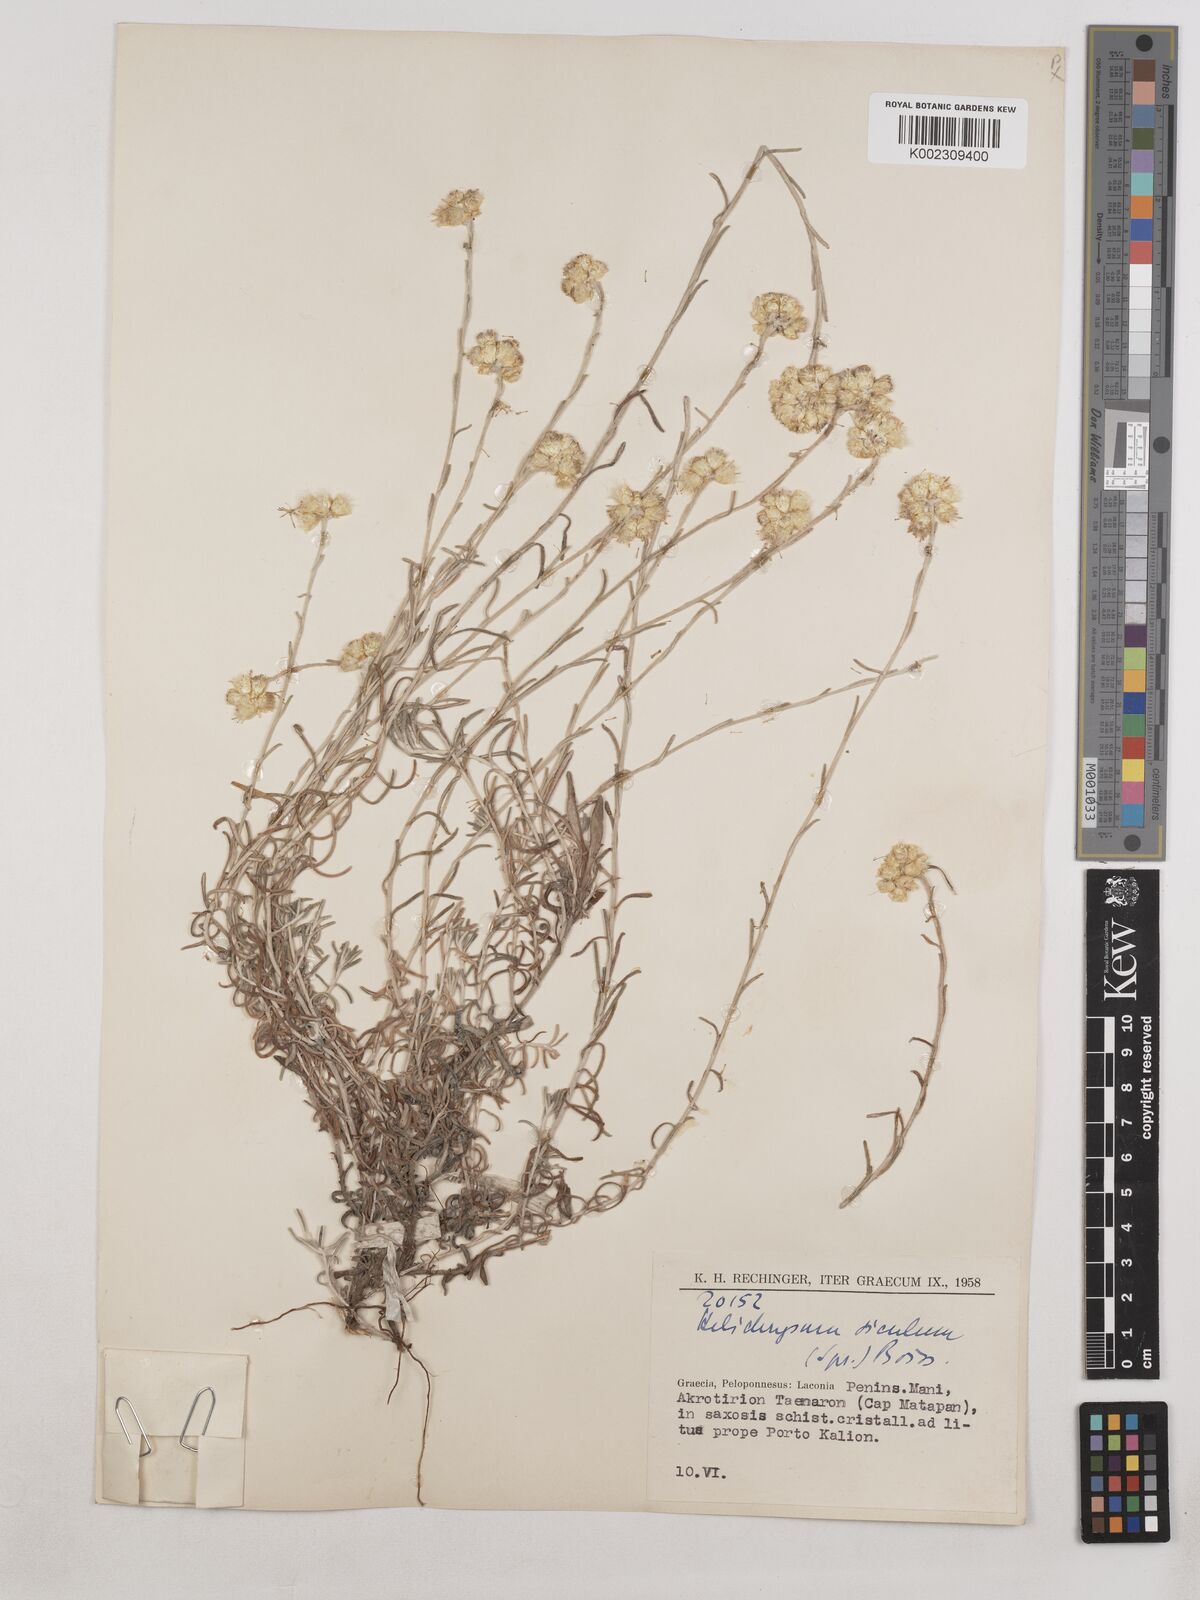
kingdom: Plantae
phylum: Tracheophyta
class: Magnoliopsida
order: Asterales
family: Asteraceae
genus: Helichrysum
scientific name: Helichrysum stoechas
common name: Goldilocks
